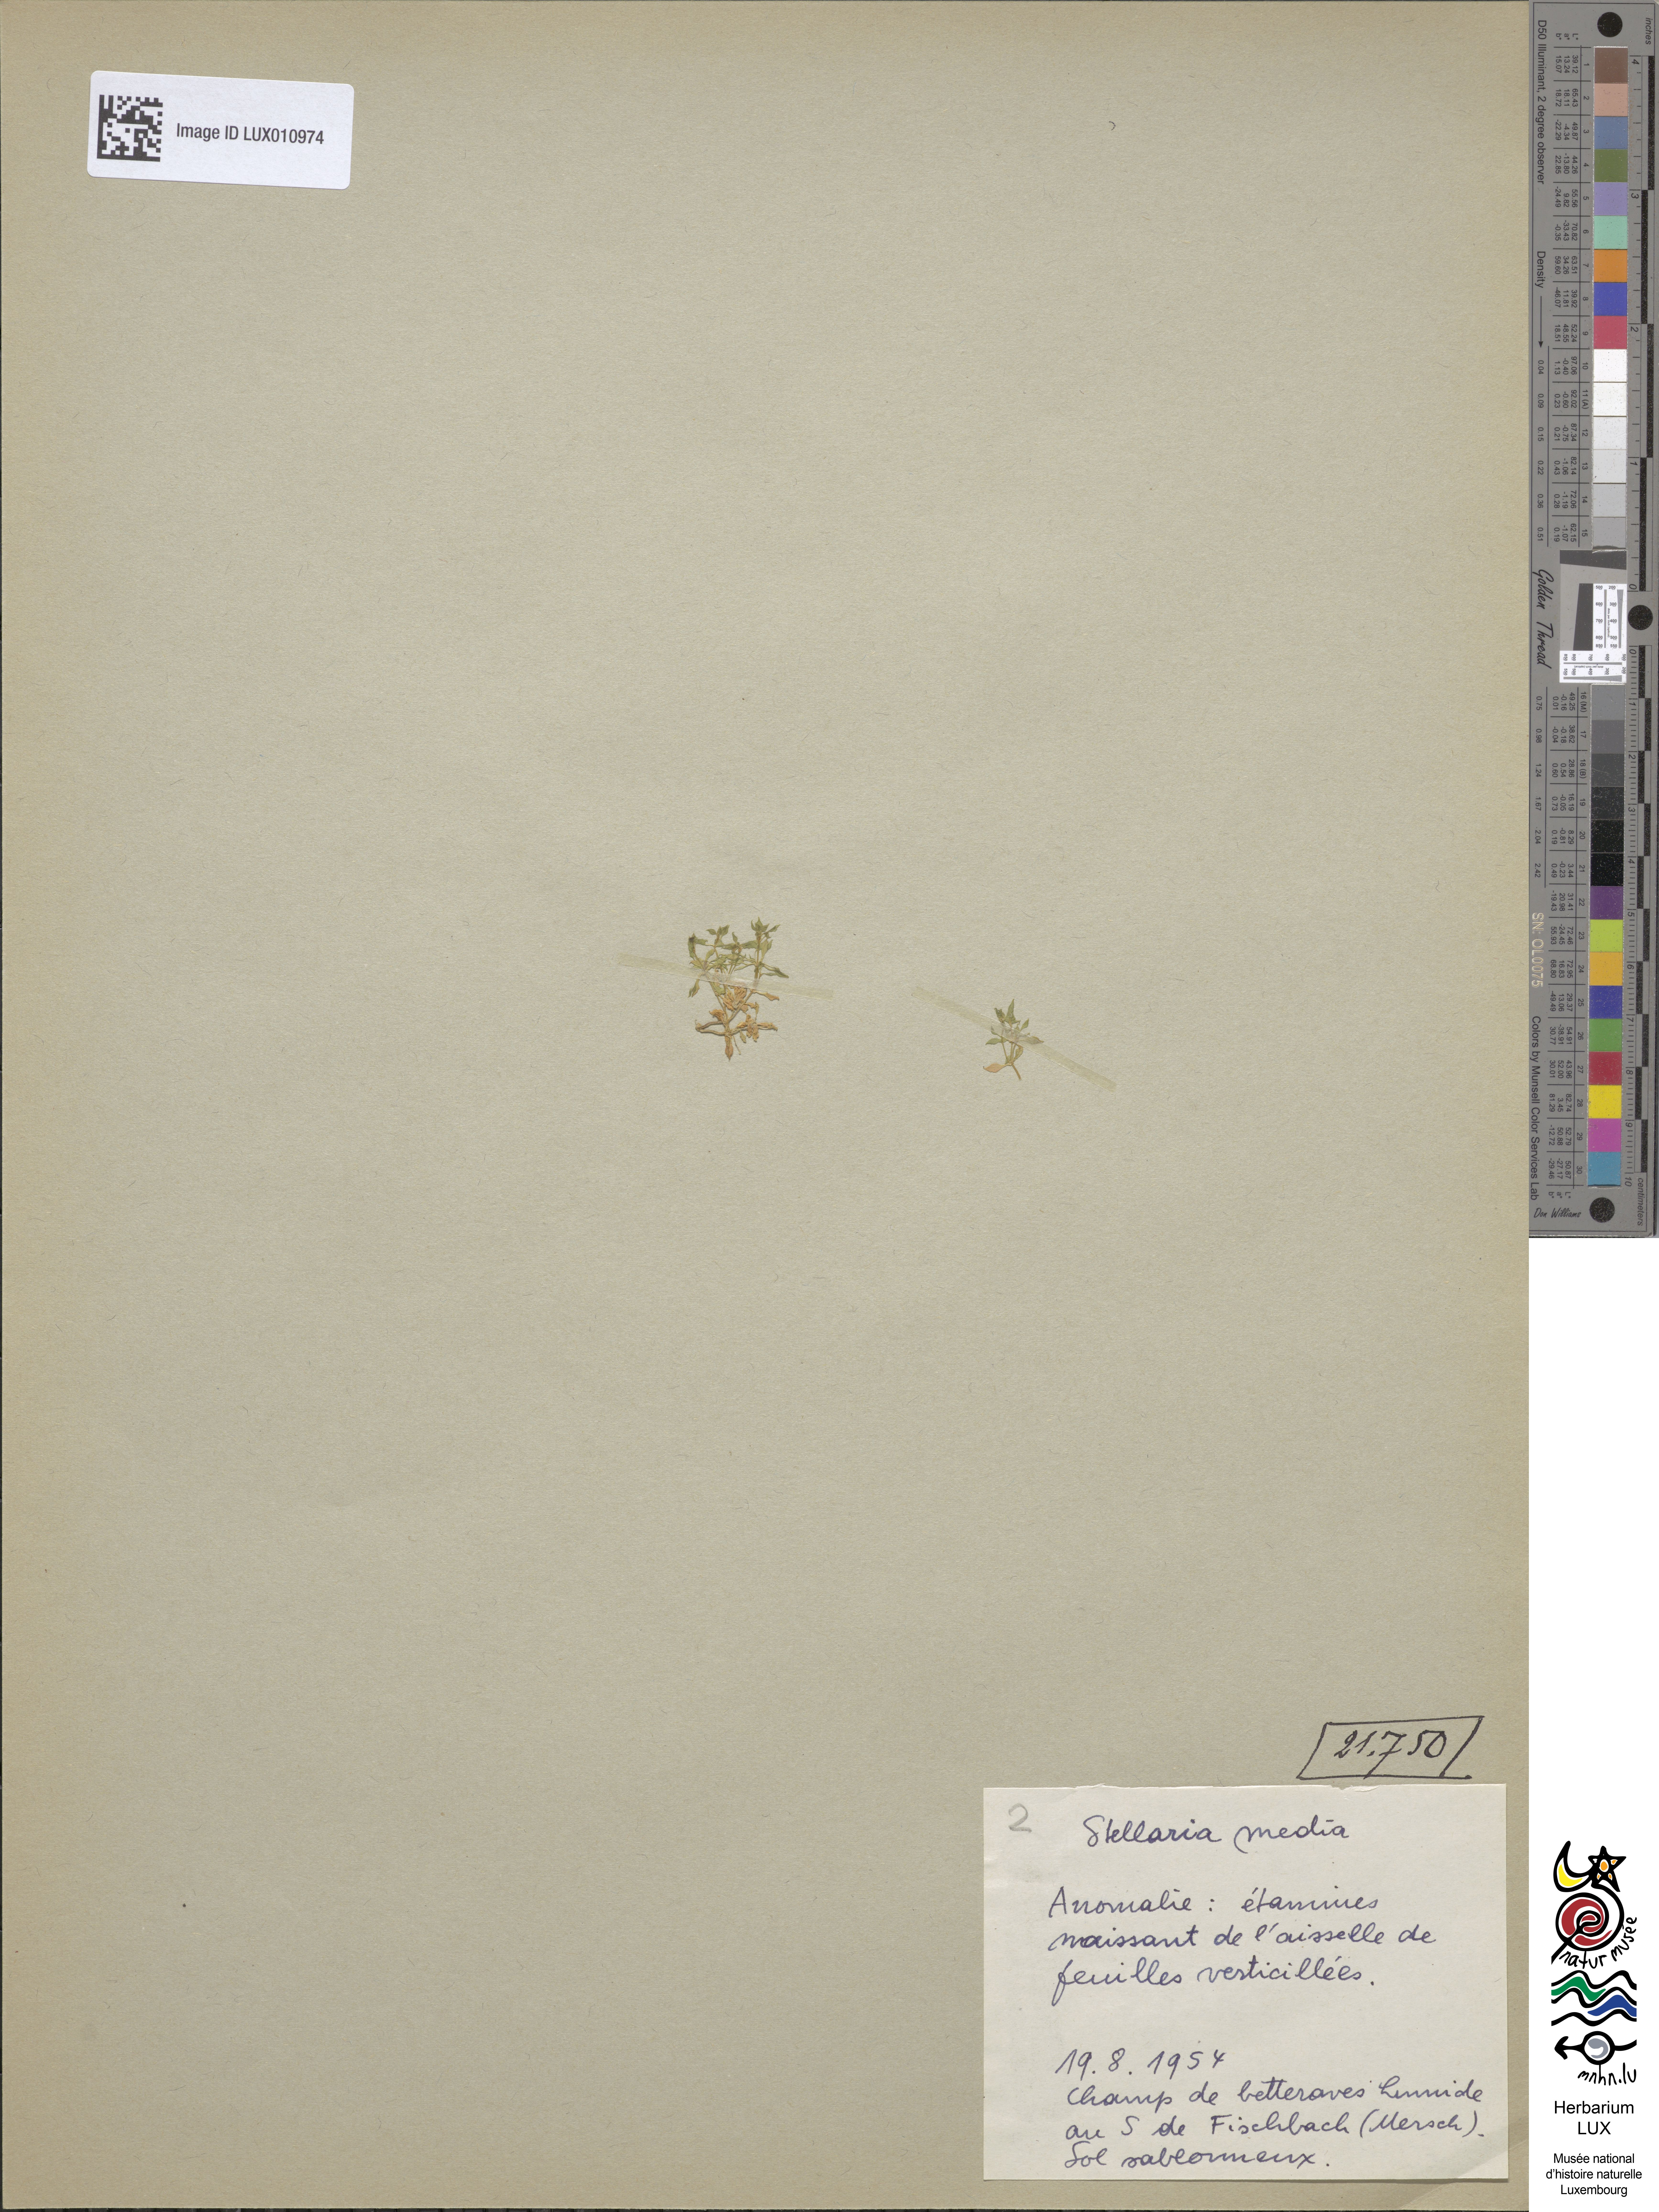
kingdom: Plantae
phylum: Tracheophyta
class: Magnoliopsida
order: Caryophyllales
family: Caryophyllaceae
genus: Stellaria
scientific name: Stellaria media
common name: Common chickweed
